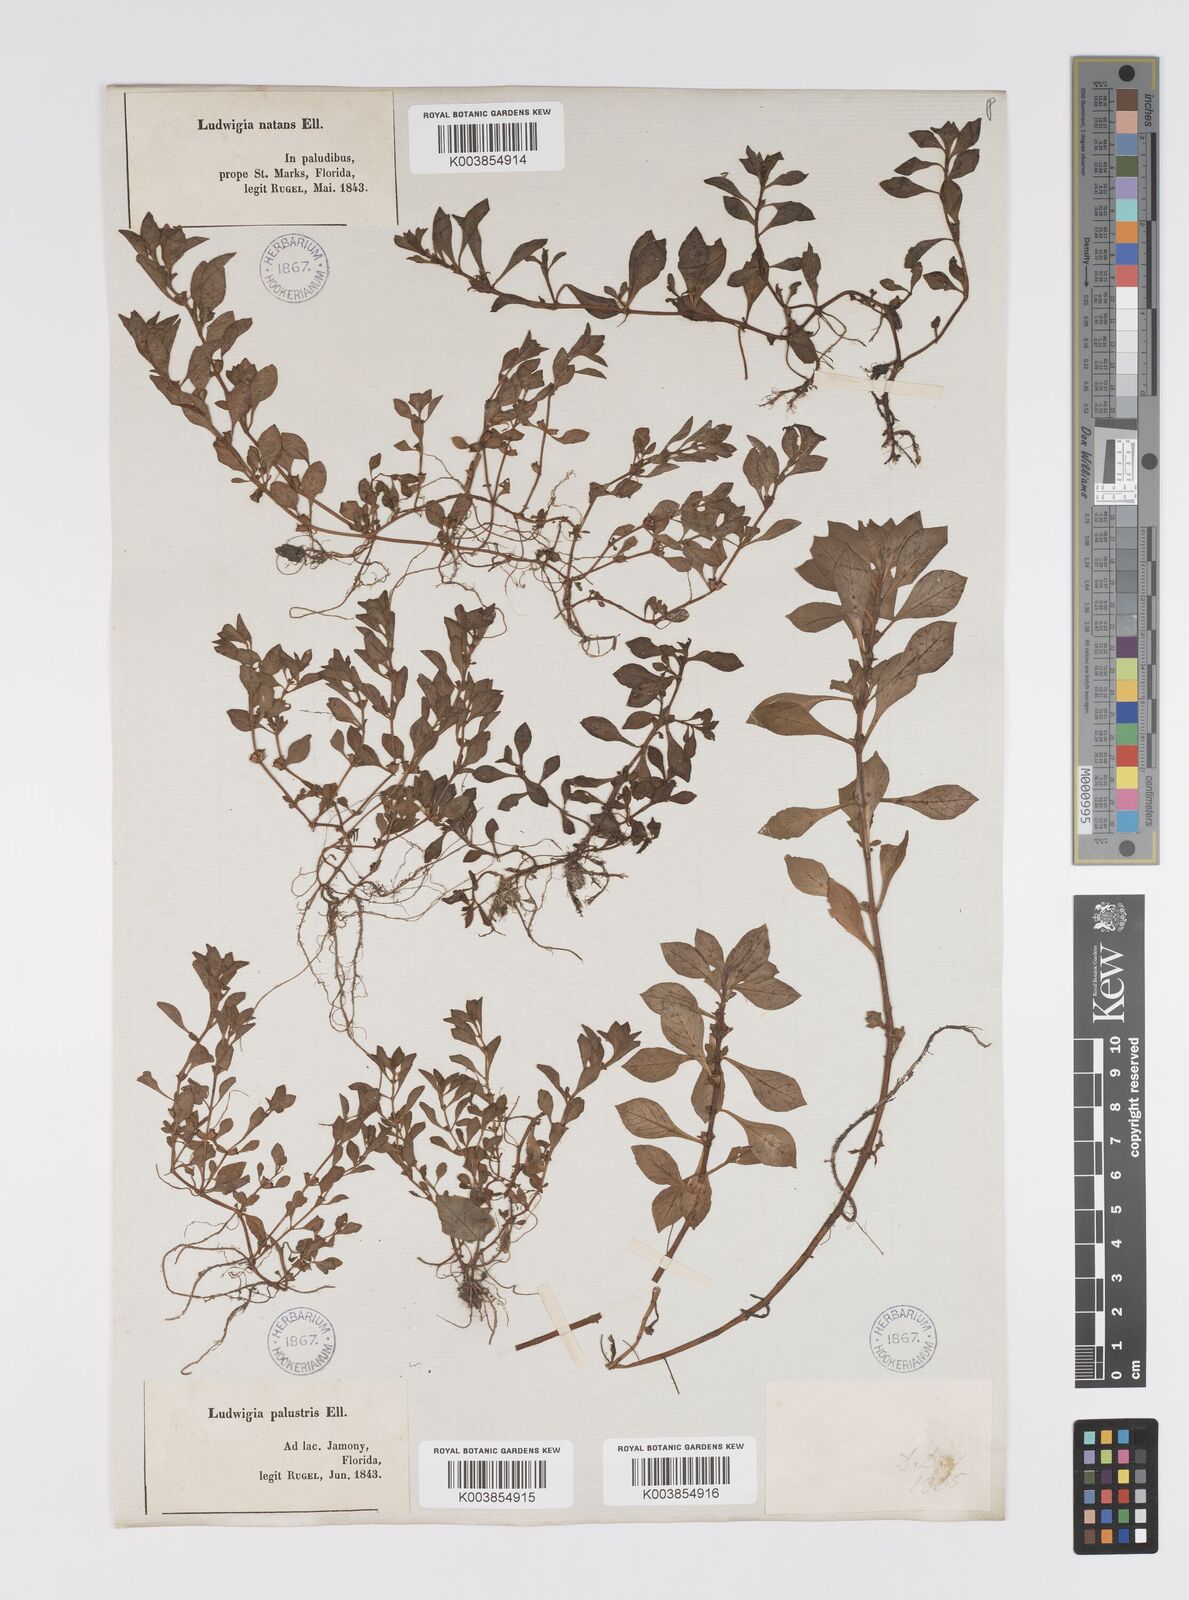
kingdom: Plantae
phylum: Tracheophyta
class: Magnoliopsida
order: Myrtales
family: Onagraceae
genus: Ludwigia
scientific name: Ludwigia palustris
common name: Hampshire-purslane
